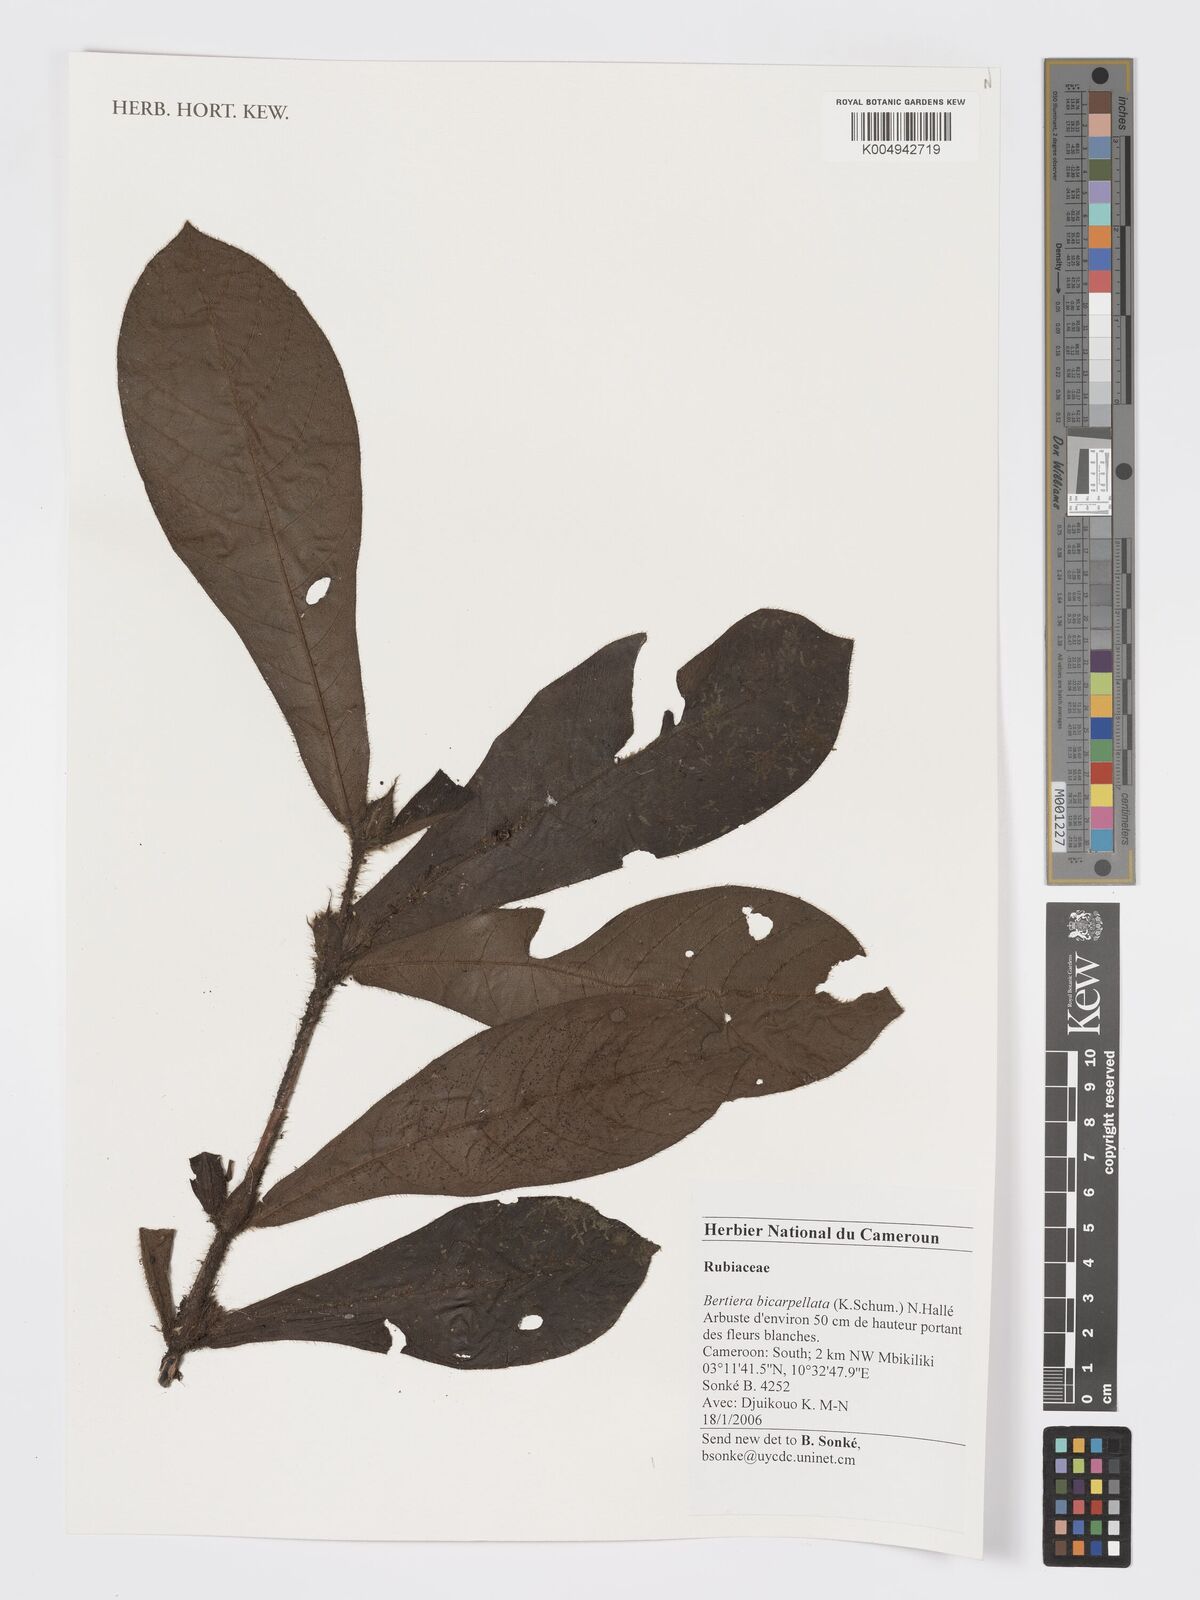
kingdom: Plantae
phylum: Tracheophyta
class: Magnoliopsida
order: Gentianales
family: Rubiaceae
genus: Bertiera
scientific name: Bertiera bicarpellata
